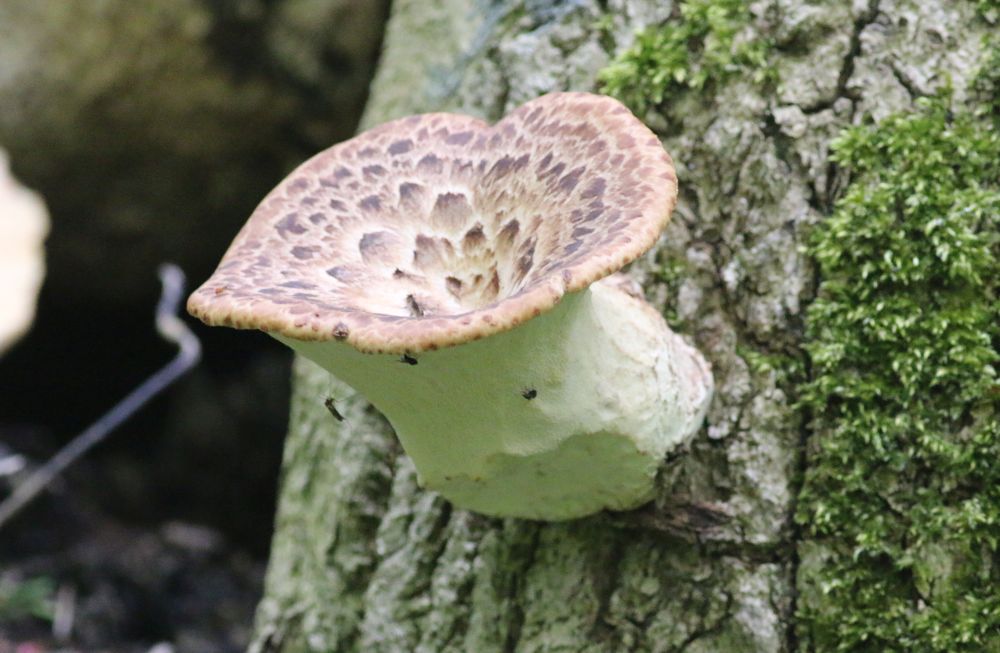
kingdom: Fungi
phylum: Basidiomycota
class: Agaricomycetes
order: Polyporales
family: Polyporaceae
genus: Cerioporus
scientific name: Cerioporus squamosus
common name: skællet stilkporesvamp
